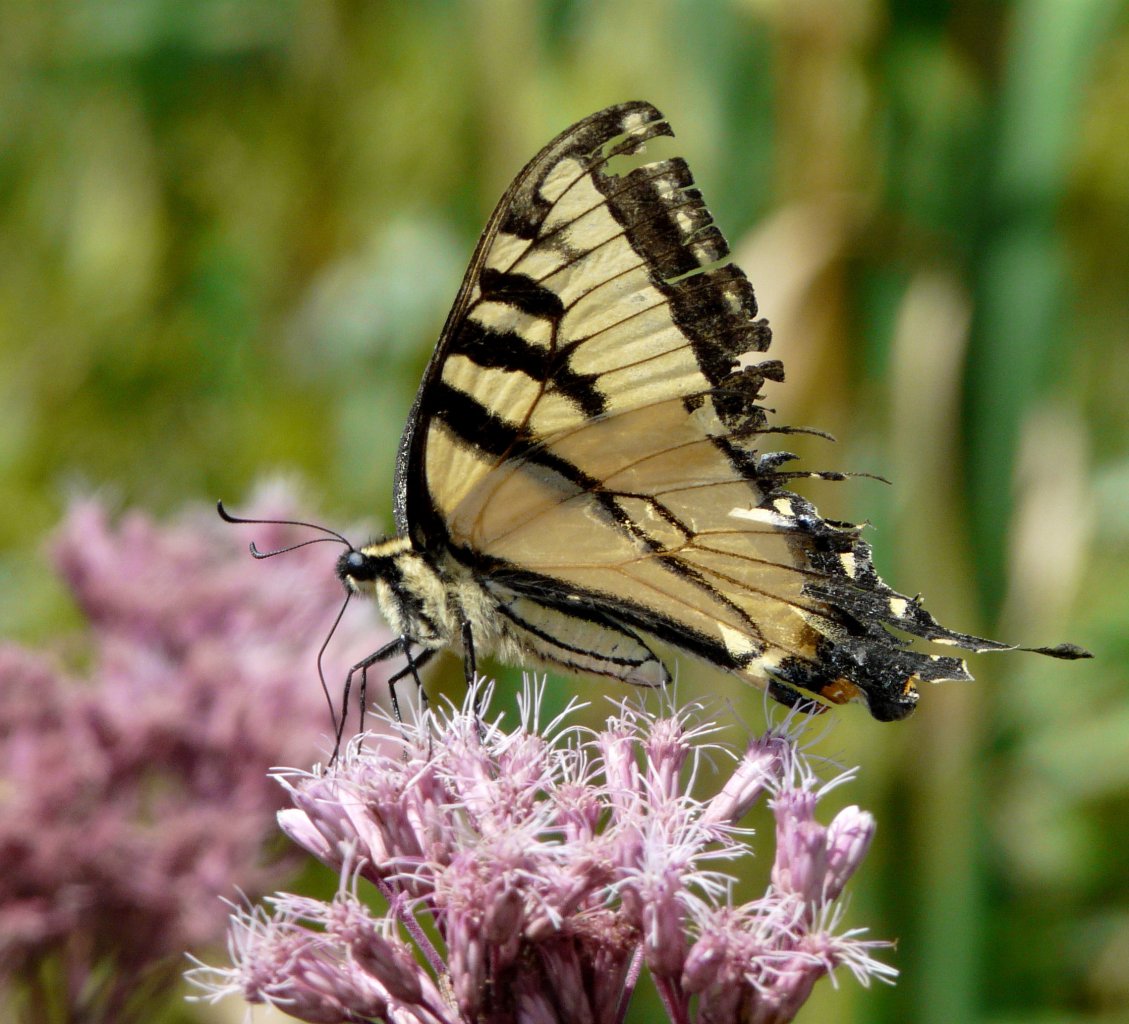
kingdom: Animalia
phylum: Arthropoda
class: Insecta
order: Lepidoptera
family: Papilionidae
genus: Pterourus
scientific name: Pterourus
